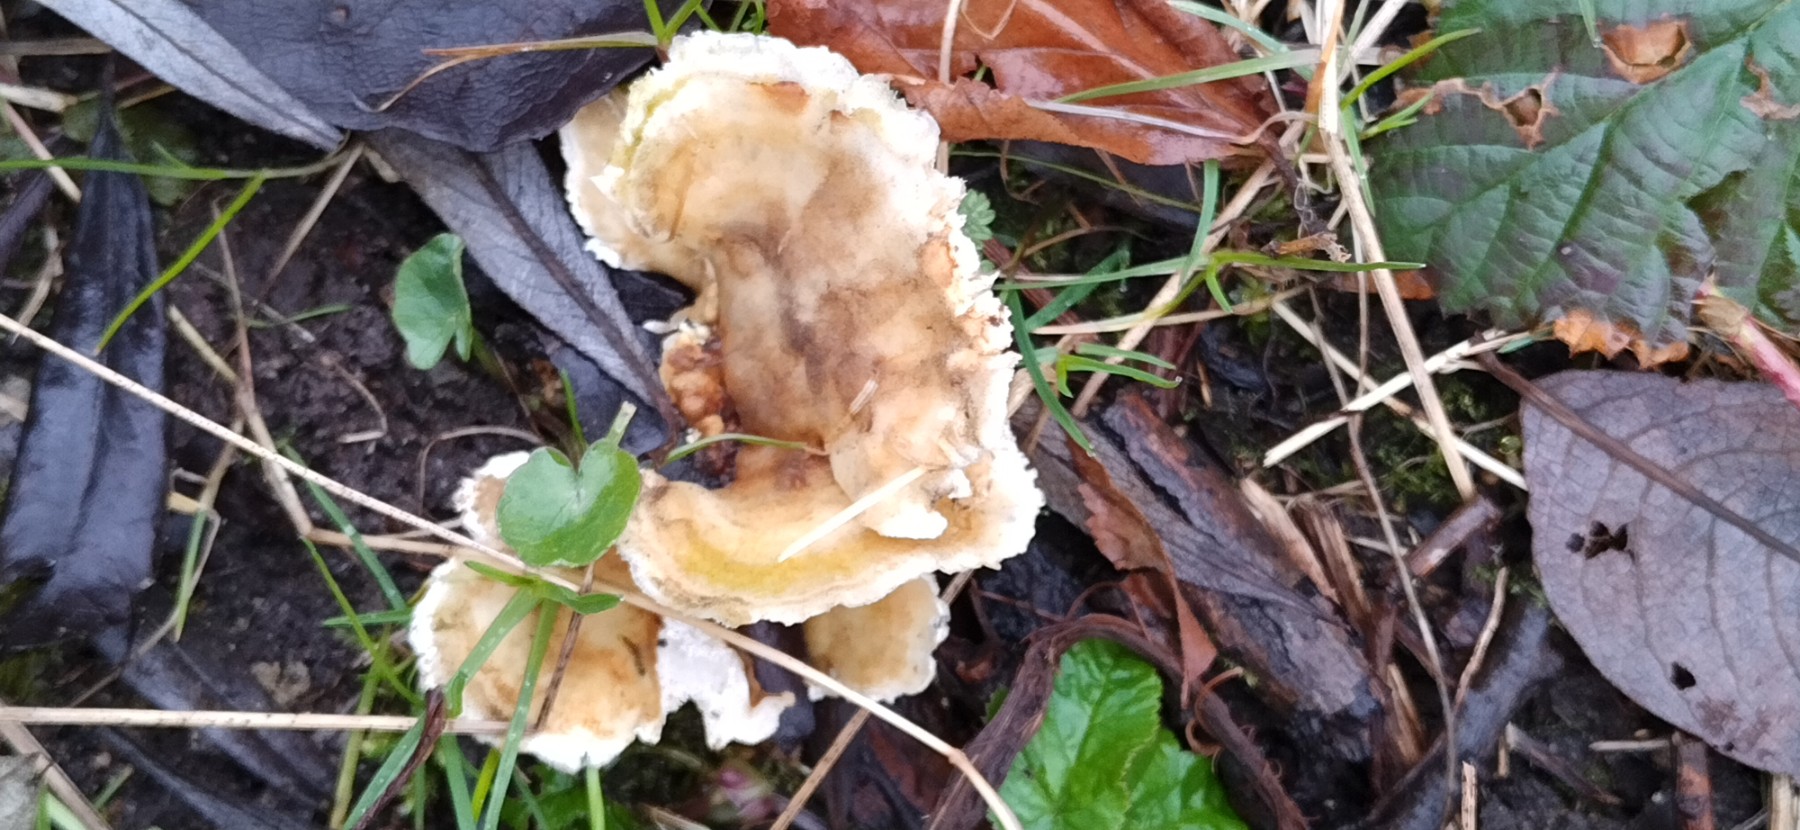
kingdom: Fungi
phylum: Basidiomycota
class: Agaricomycetes
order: Polyporales
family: Polyporaceae
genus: Trametes
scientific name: Trametes hirsuta
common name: håret læderporesvamp
